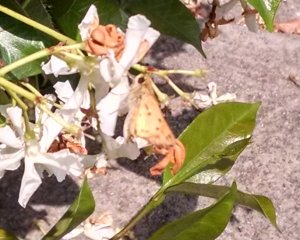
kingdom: Animalia
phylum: Arthropoda
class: Insecta
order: Lepidoptera
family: Hesperiidae
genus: Hylephila
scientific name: Hylephila phyleus
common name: Fiery Skipper
